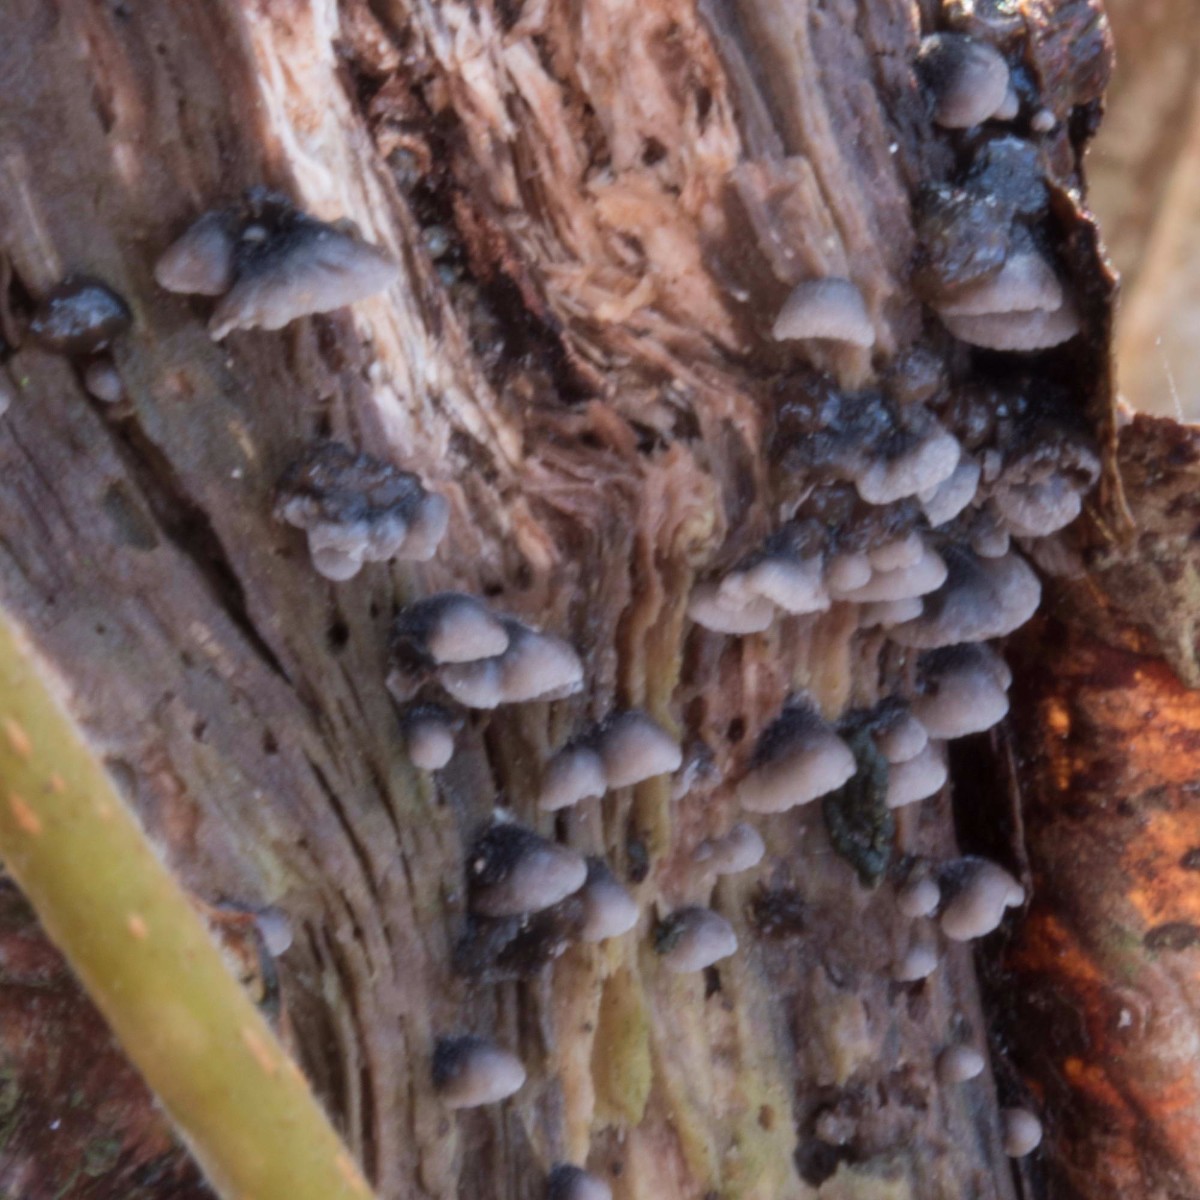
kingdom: Fungi
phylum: Basidiomycota
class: Agaricomycetes
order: Agaricales
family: Pleurotaceae
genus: Resupinatus
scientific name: Resupinatus trichotis
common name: mørkfiltet barkhat
